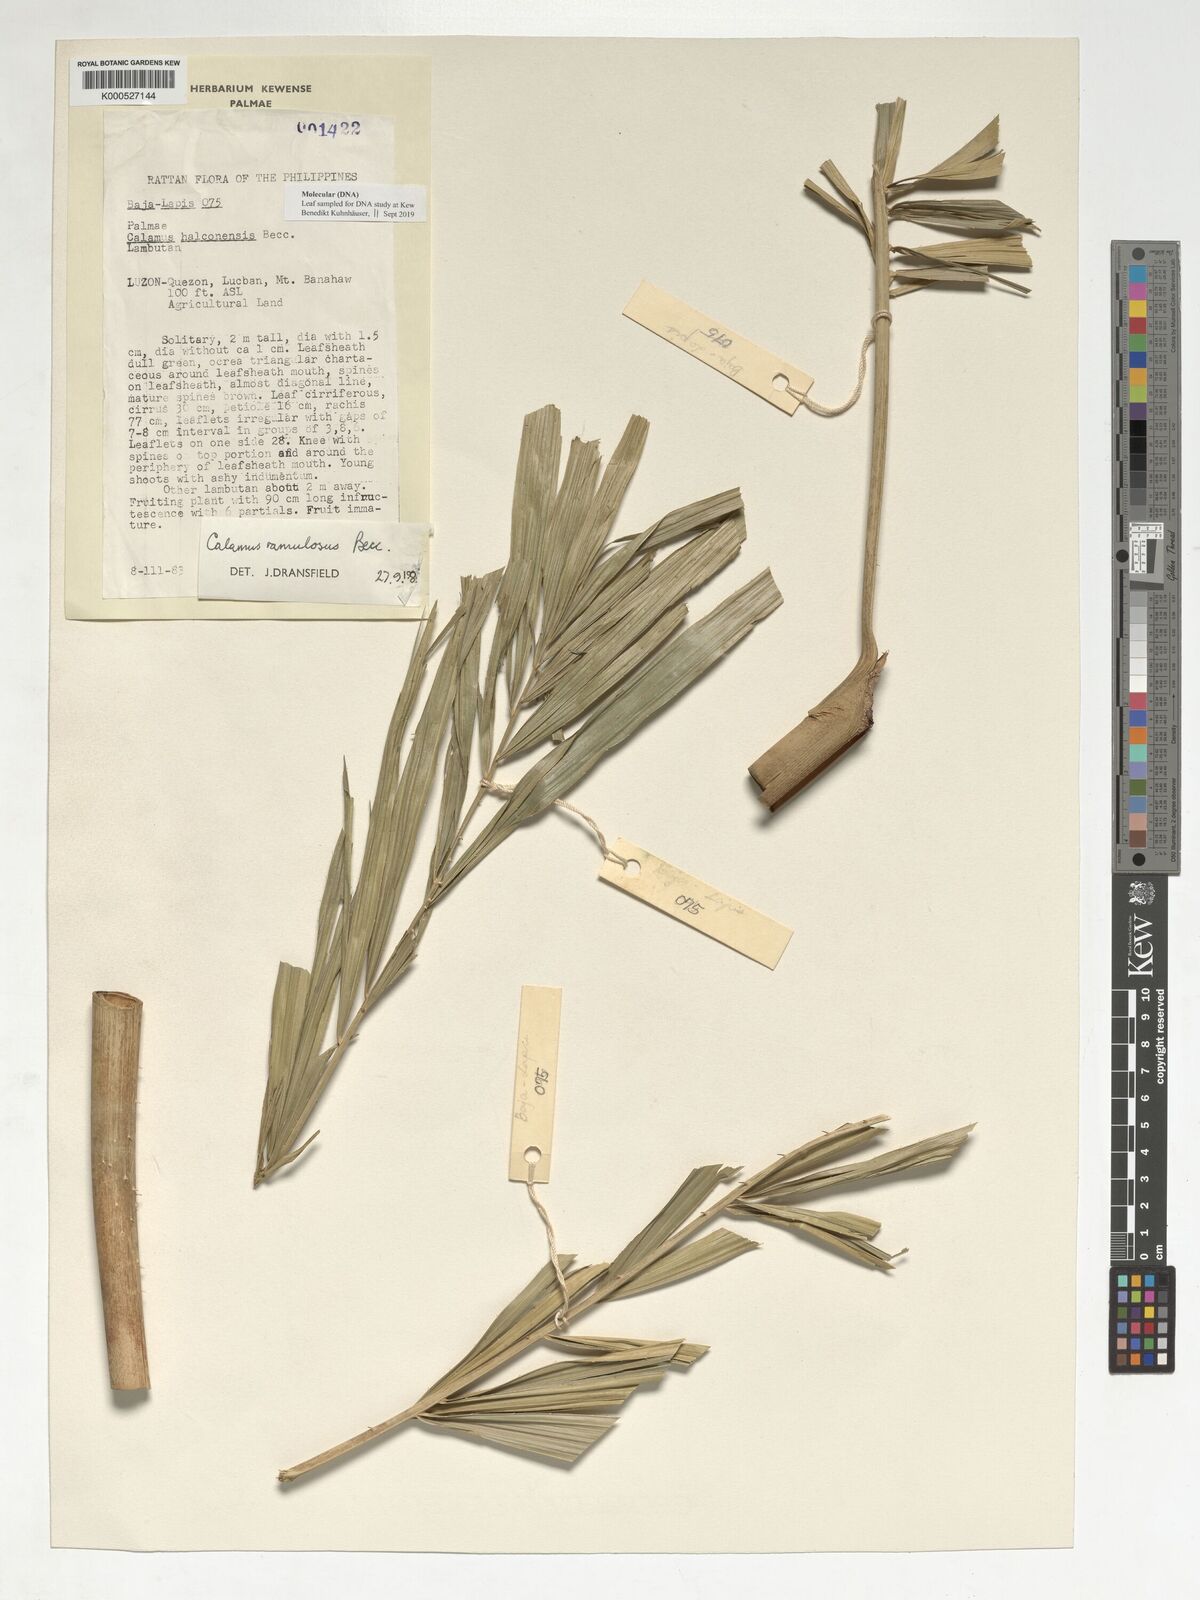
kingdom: Plantae
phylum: Tracheophyta
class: Liliopsida
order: Arecales
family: Arecaceae
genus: Calamus
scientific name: Calamus
